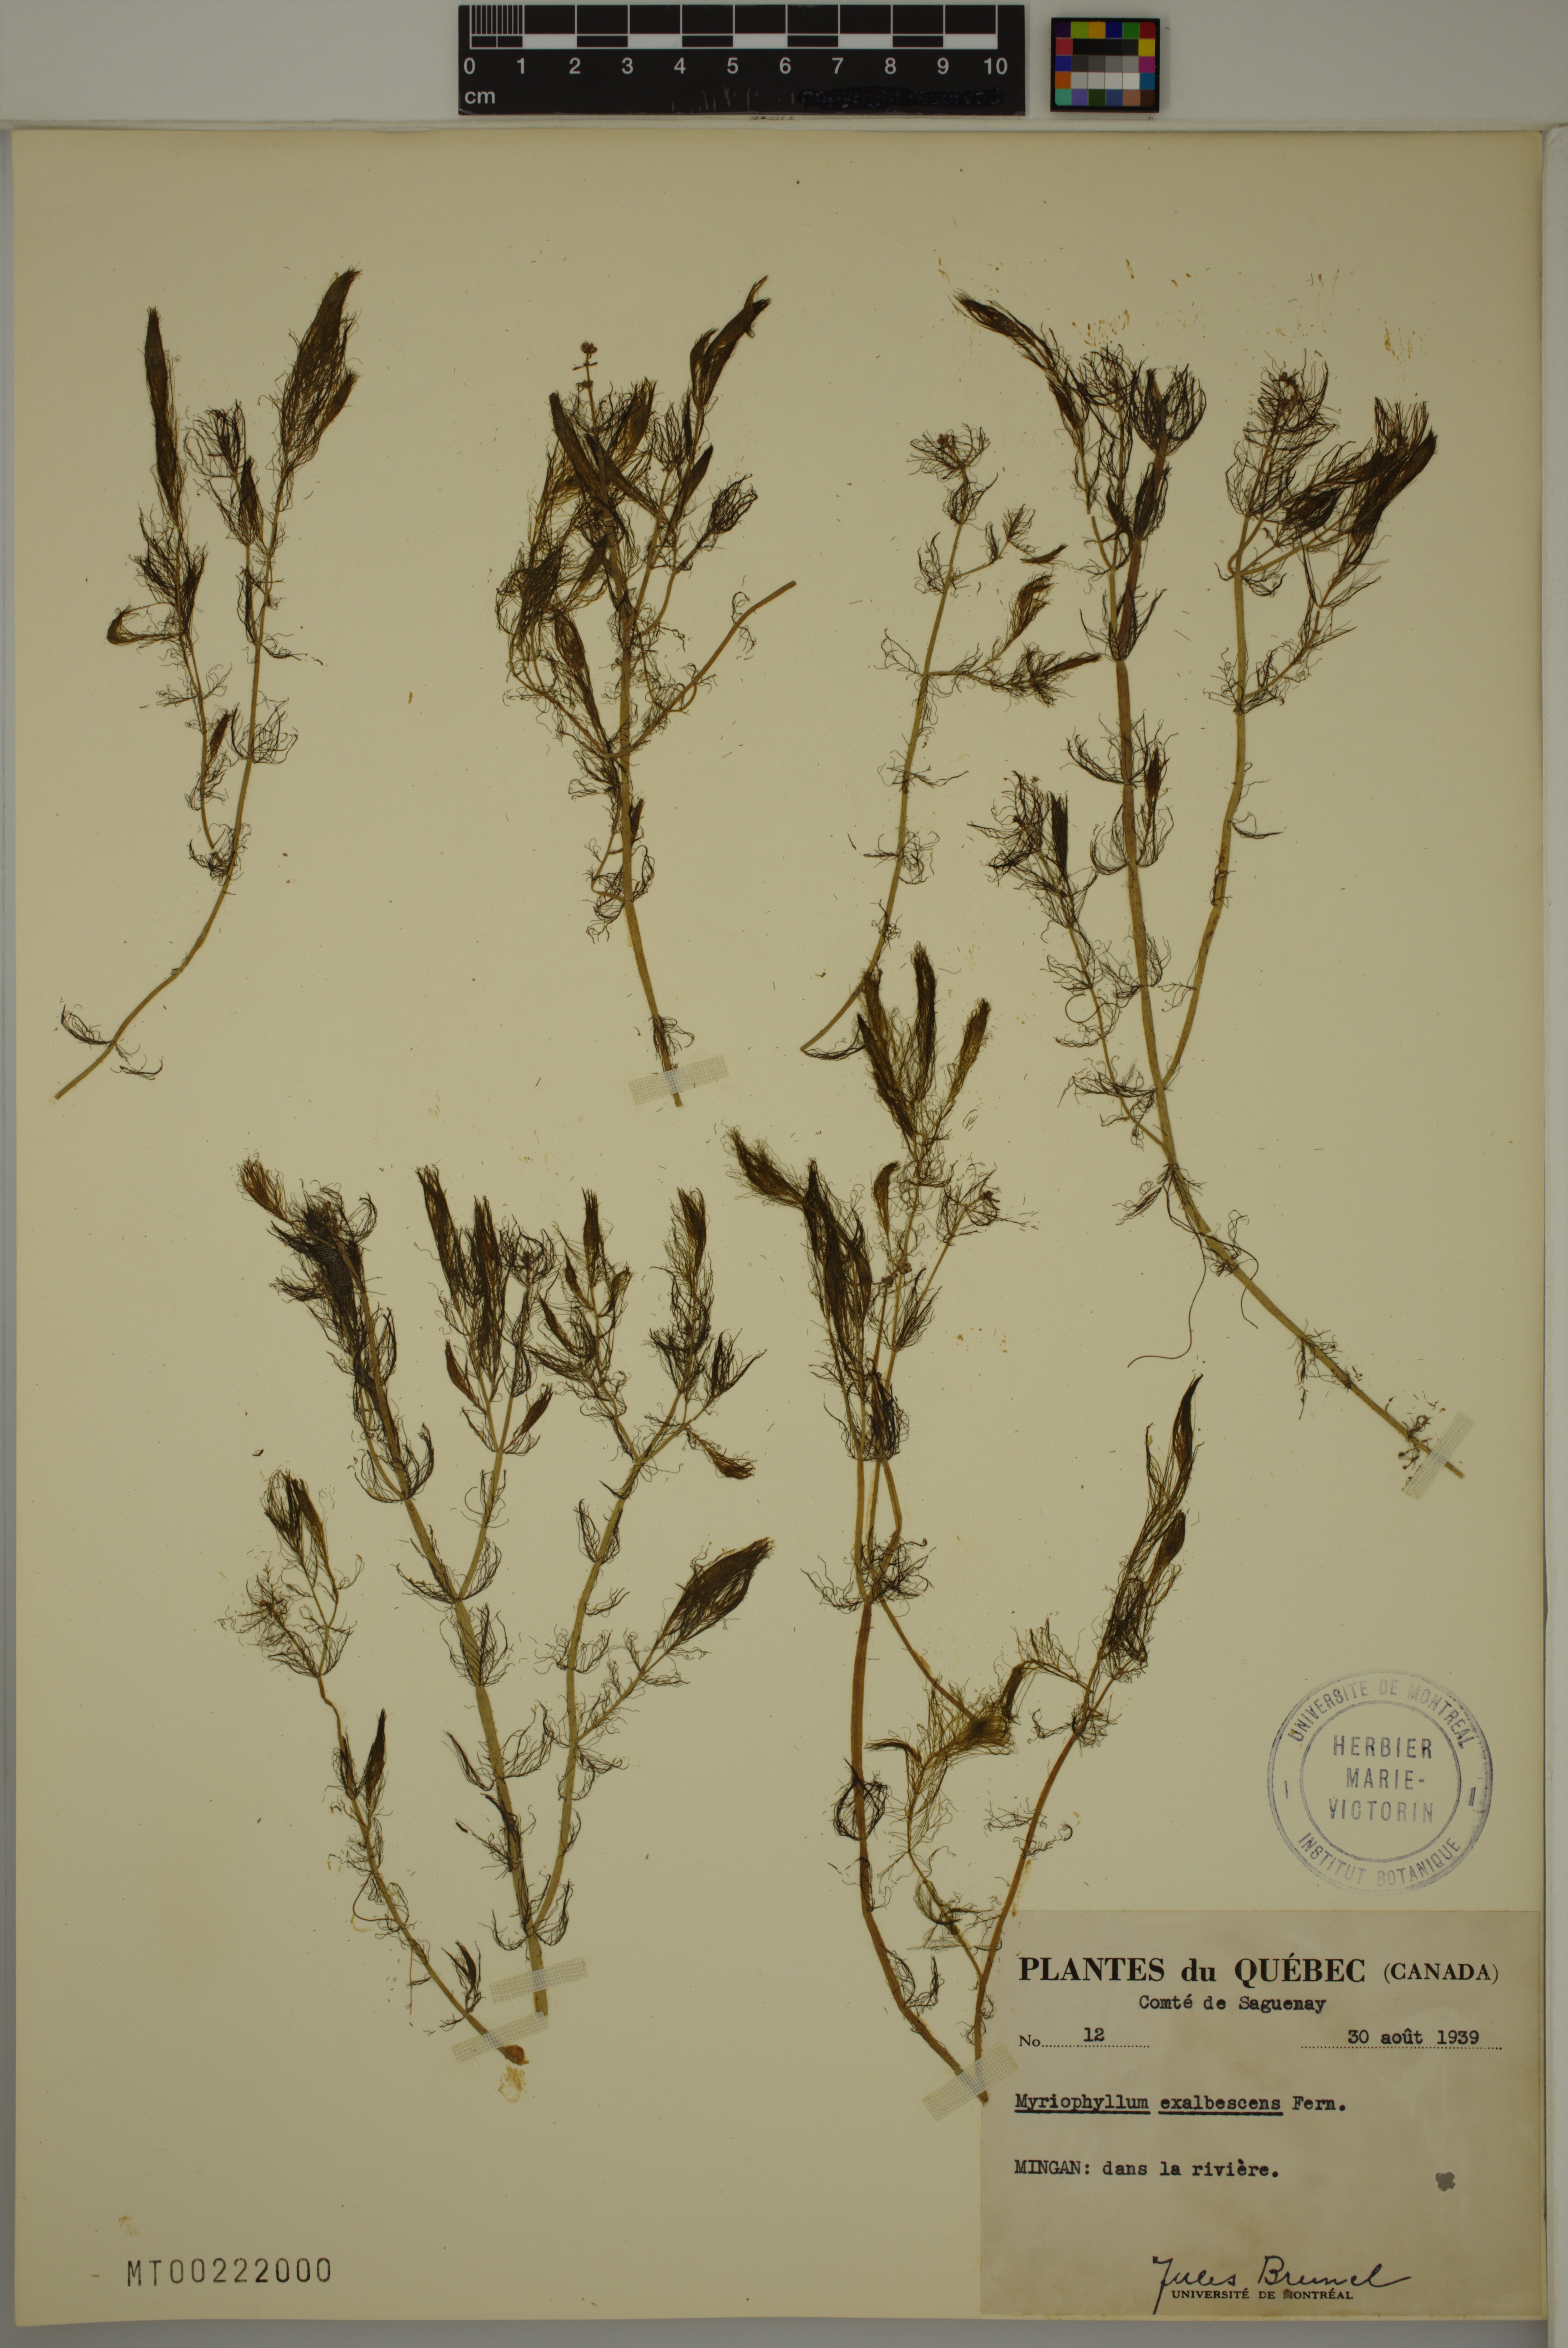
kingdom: Plantae
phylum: Tracheophyta
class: Magnoliopsida
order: Saxifragales
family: Haloragaceae
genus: Myriophyllum
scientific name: Myriophyllum sibiricum
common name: Siberian water-milfoil
